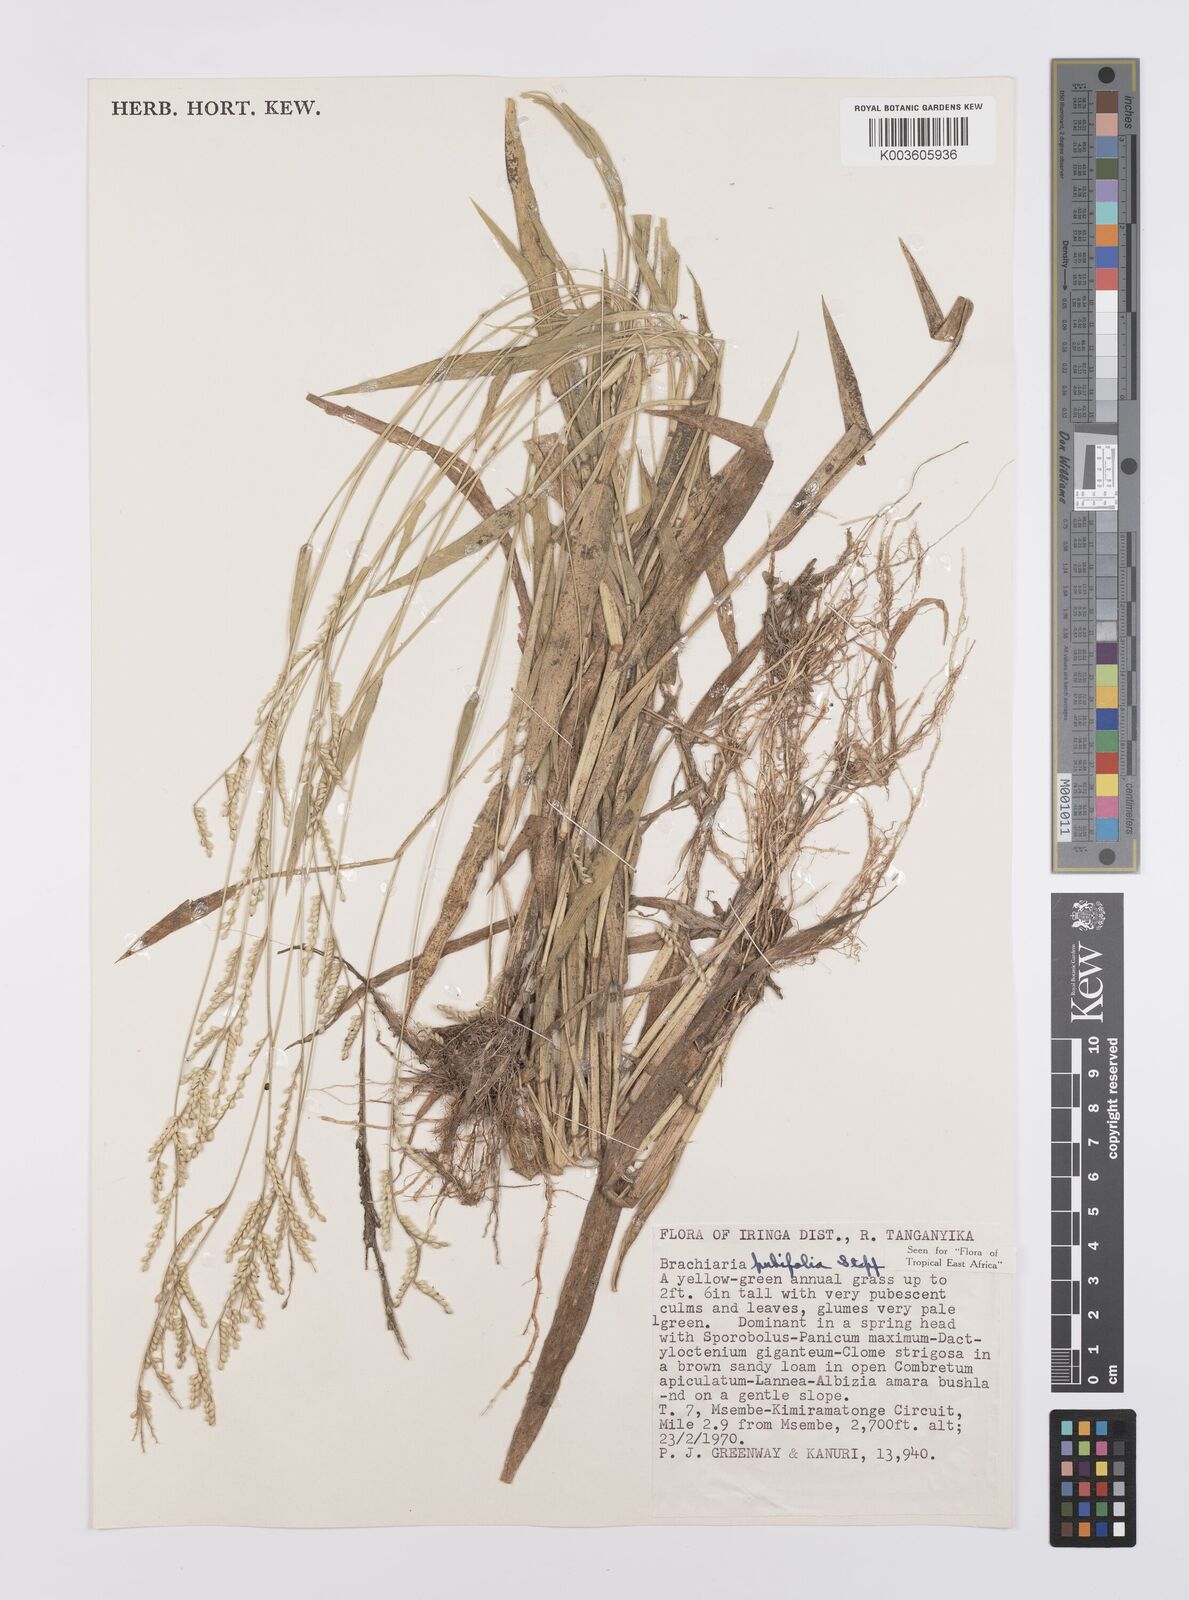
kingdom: Plantae
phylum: Tracheophyta
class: Liliopsida
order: Poales
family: Poaceae
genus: Urochloa
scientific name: Urochloa xantholeuca
